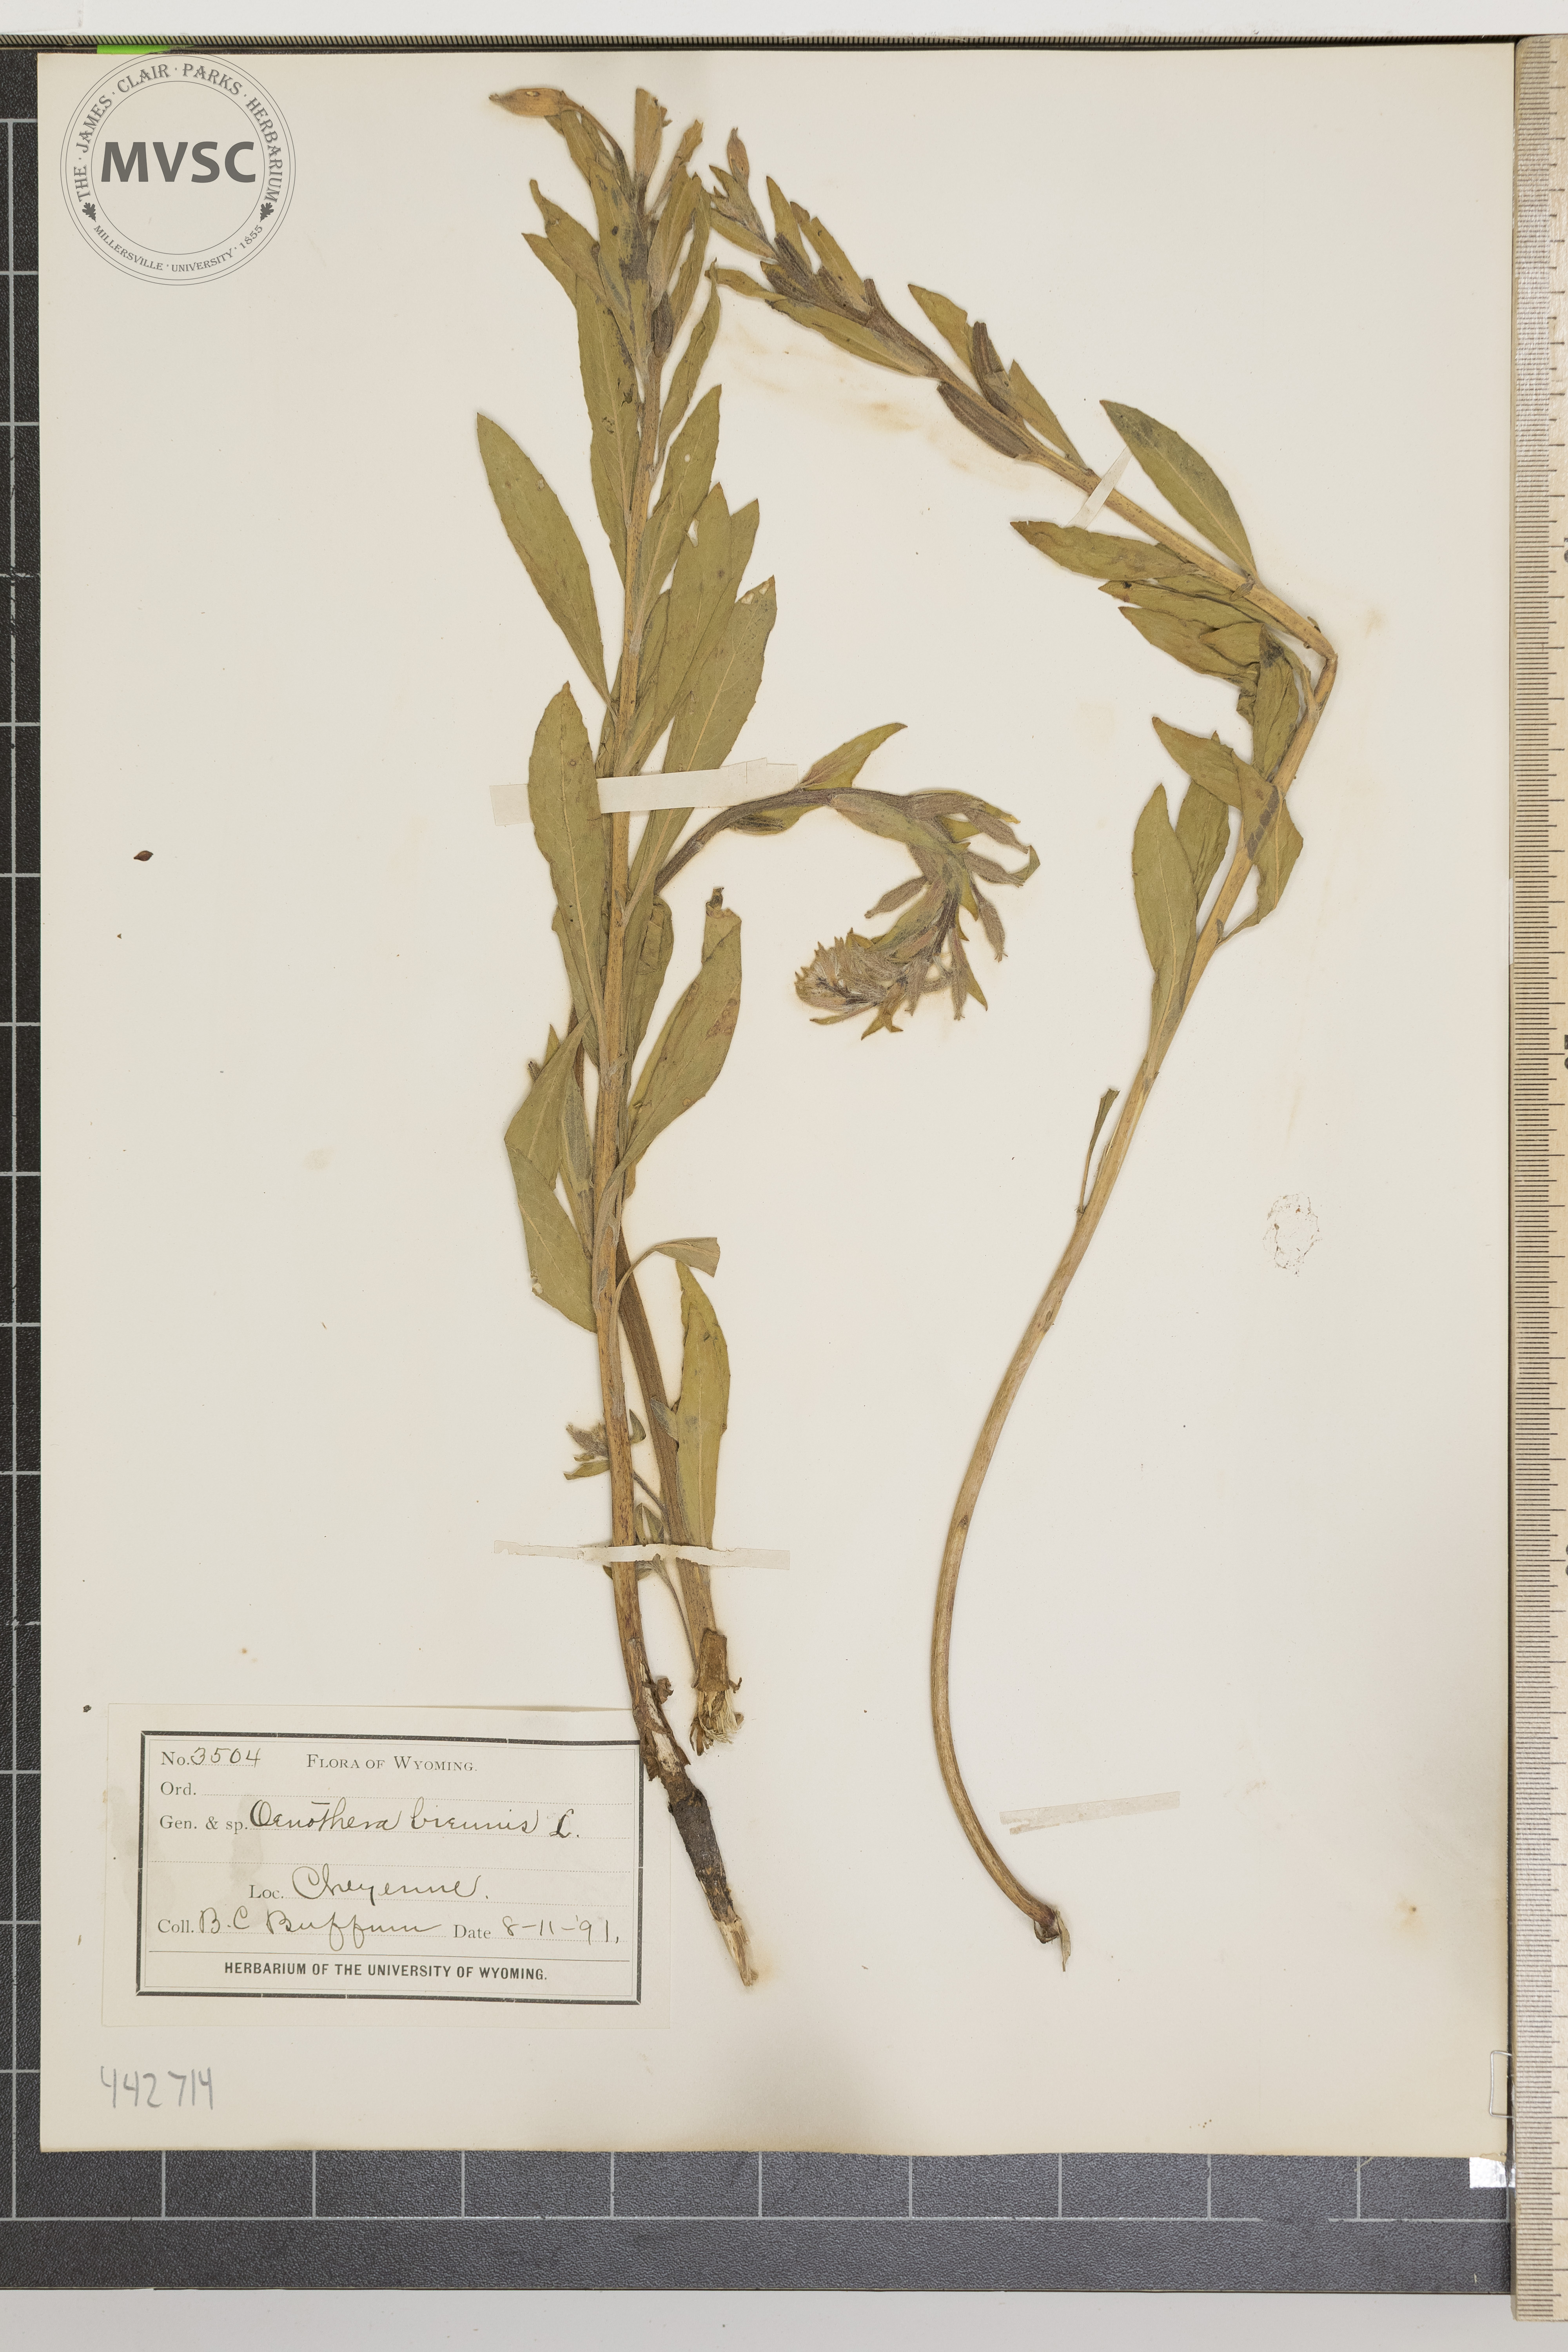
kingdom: Plantae
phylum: Tracheophyta
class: Magnoliopsida
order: Myrtales
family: Onagraceae
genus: Oenothera
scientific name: Oenothera biennis
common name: Common evening-primrose
